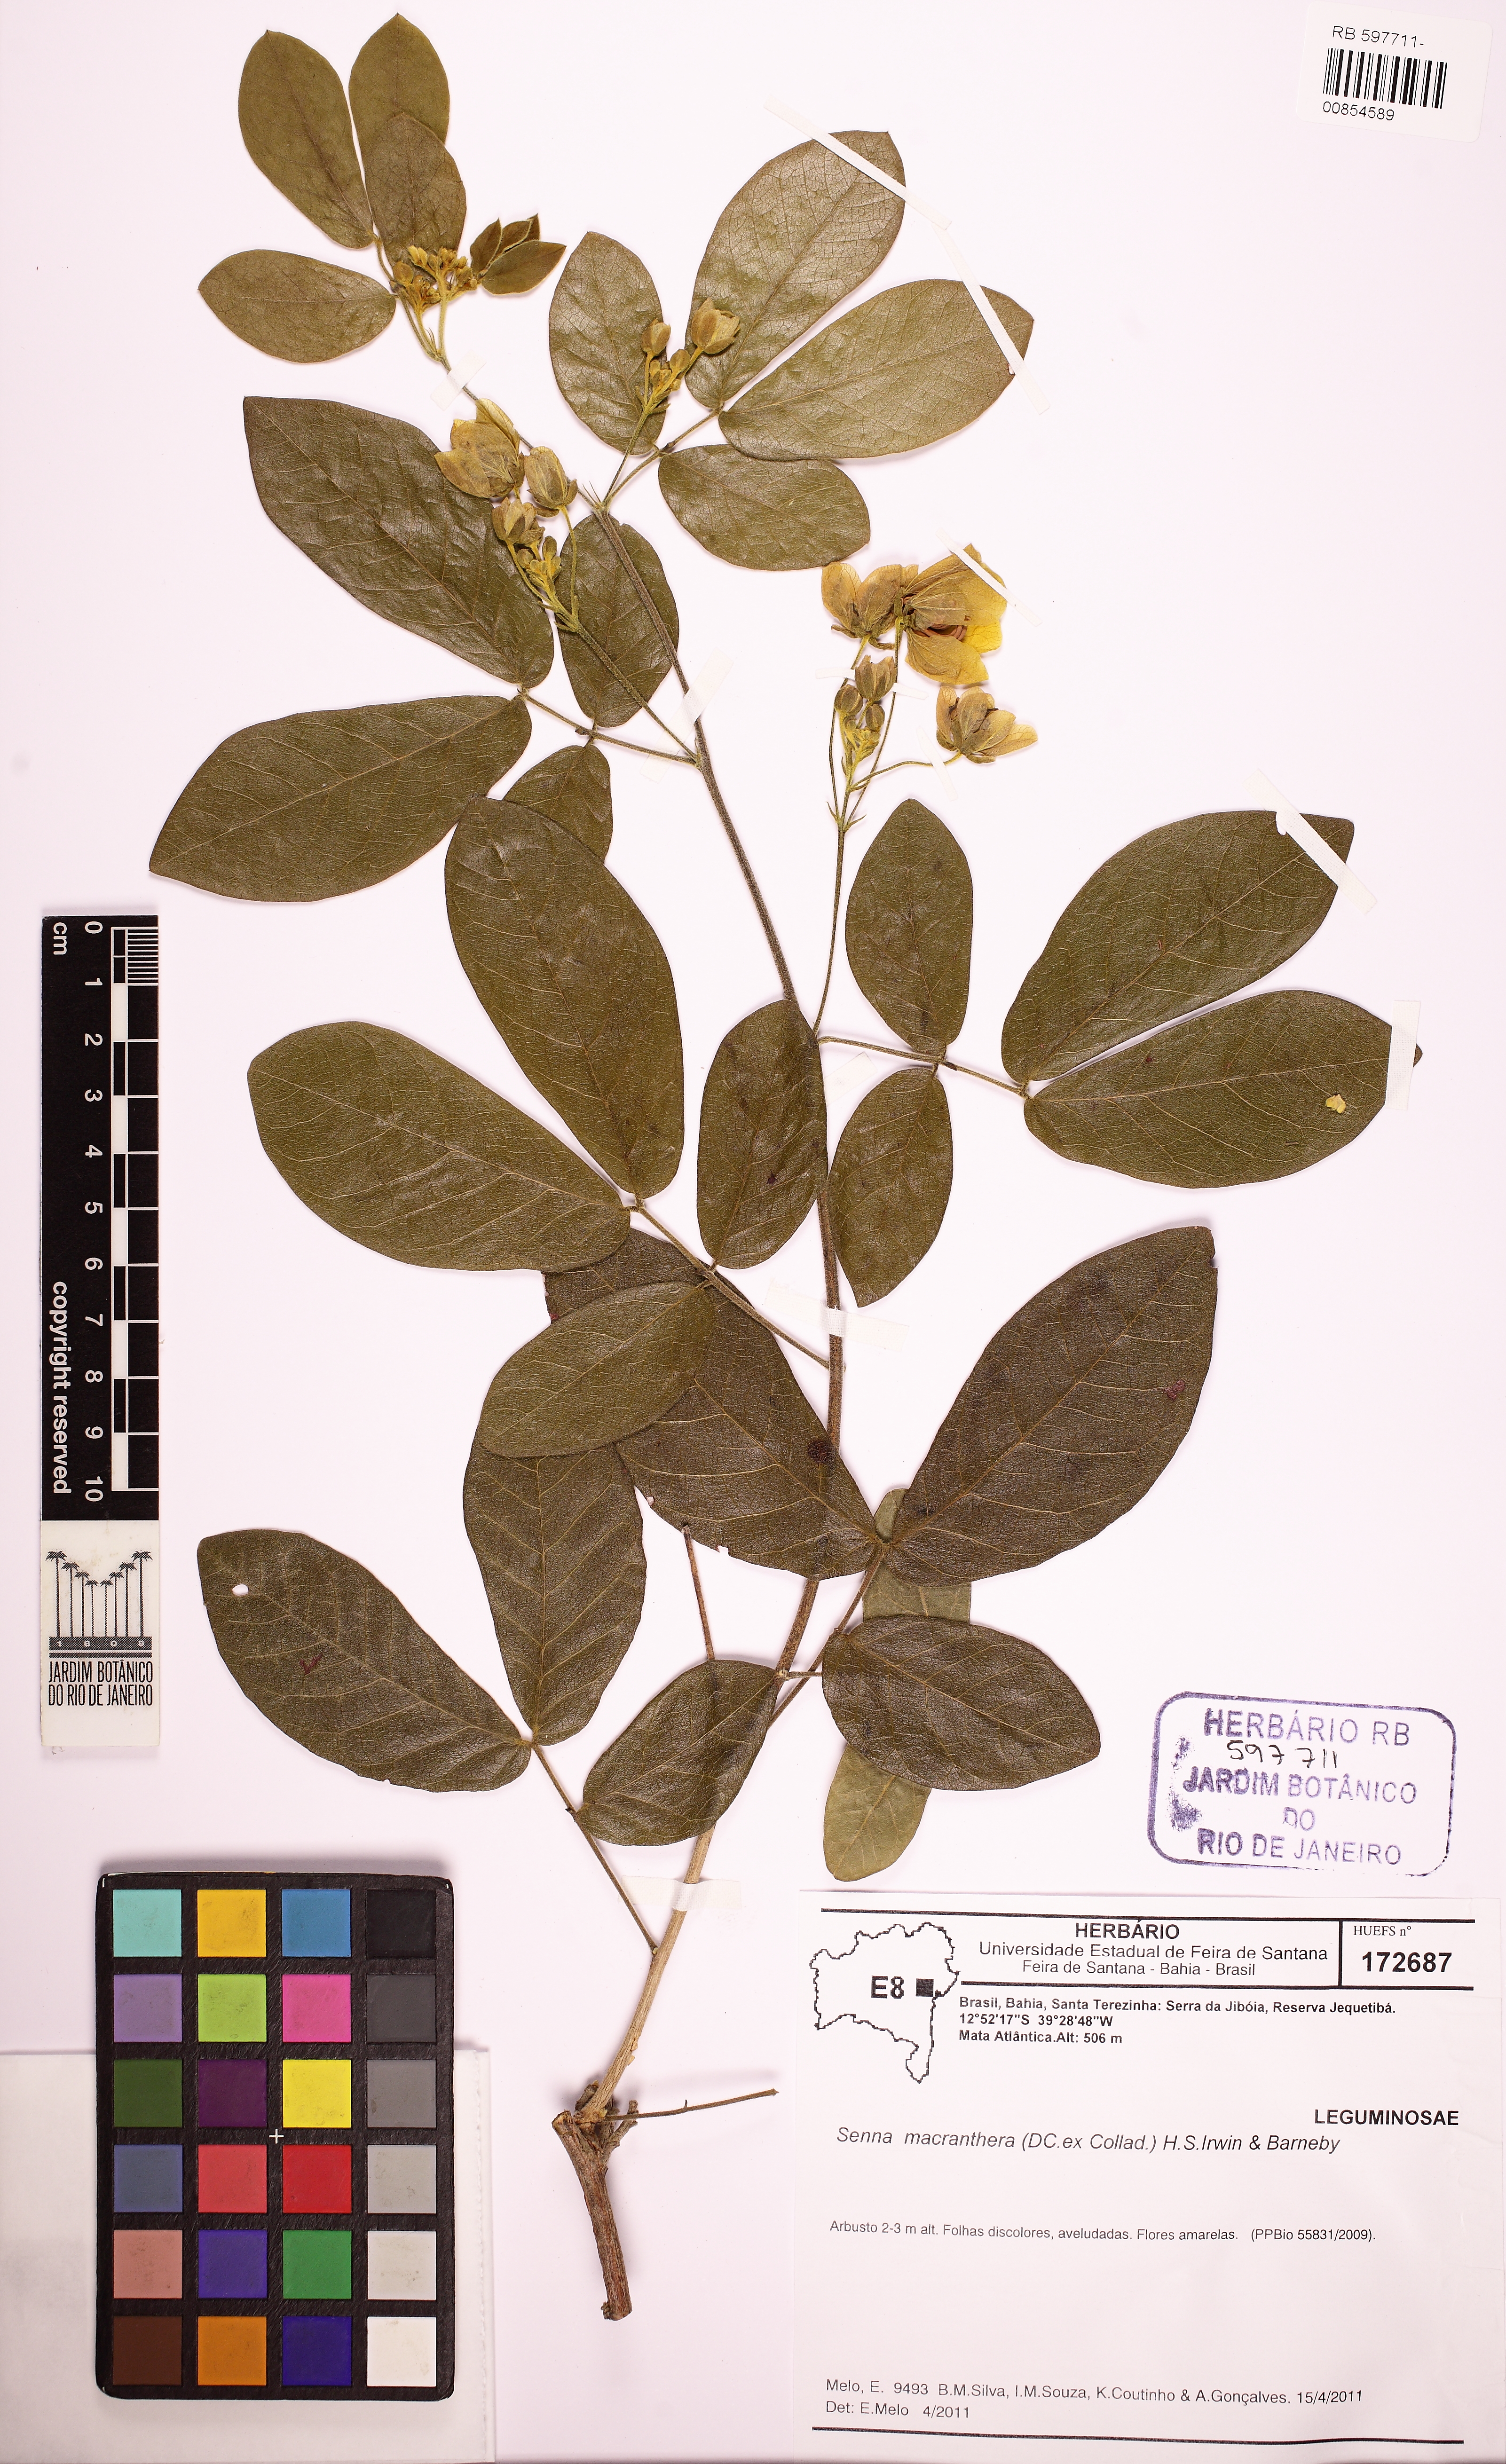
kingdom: Plantae
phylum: Tracheophyta
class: Magnoliopsida
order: Fabales
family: Fabaceae
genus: Senna
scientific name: Senna macranthera
